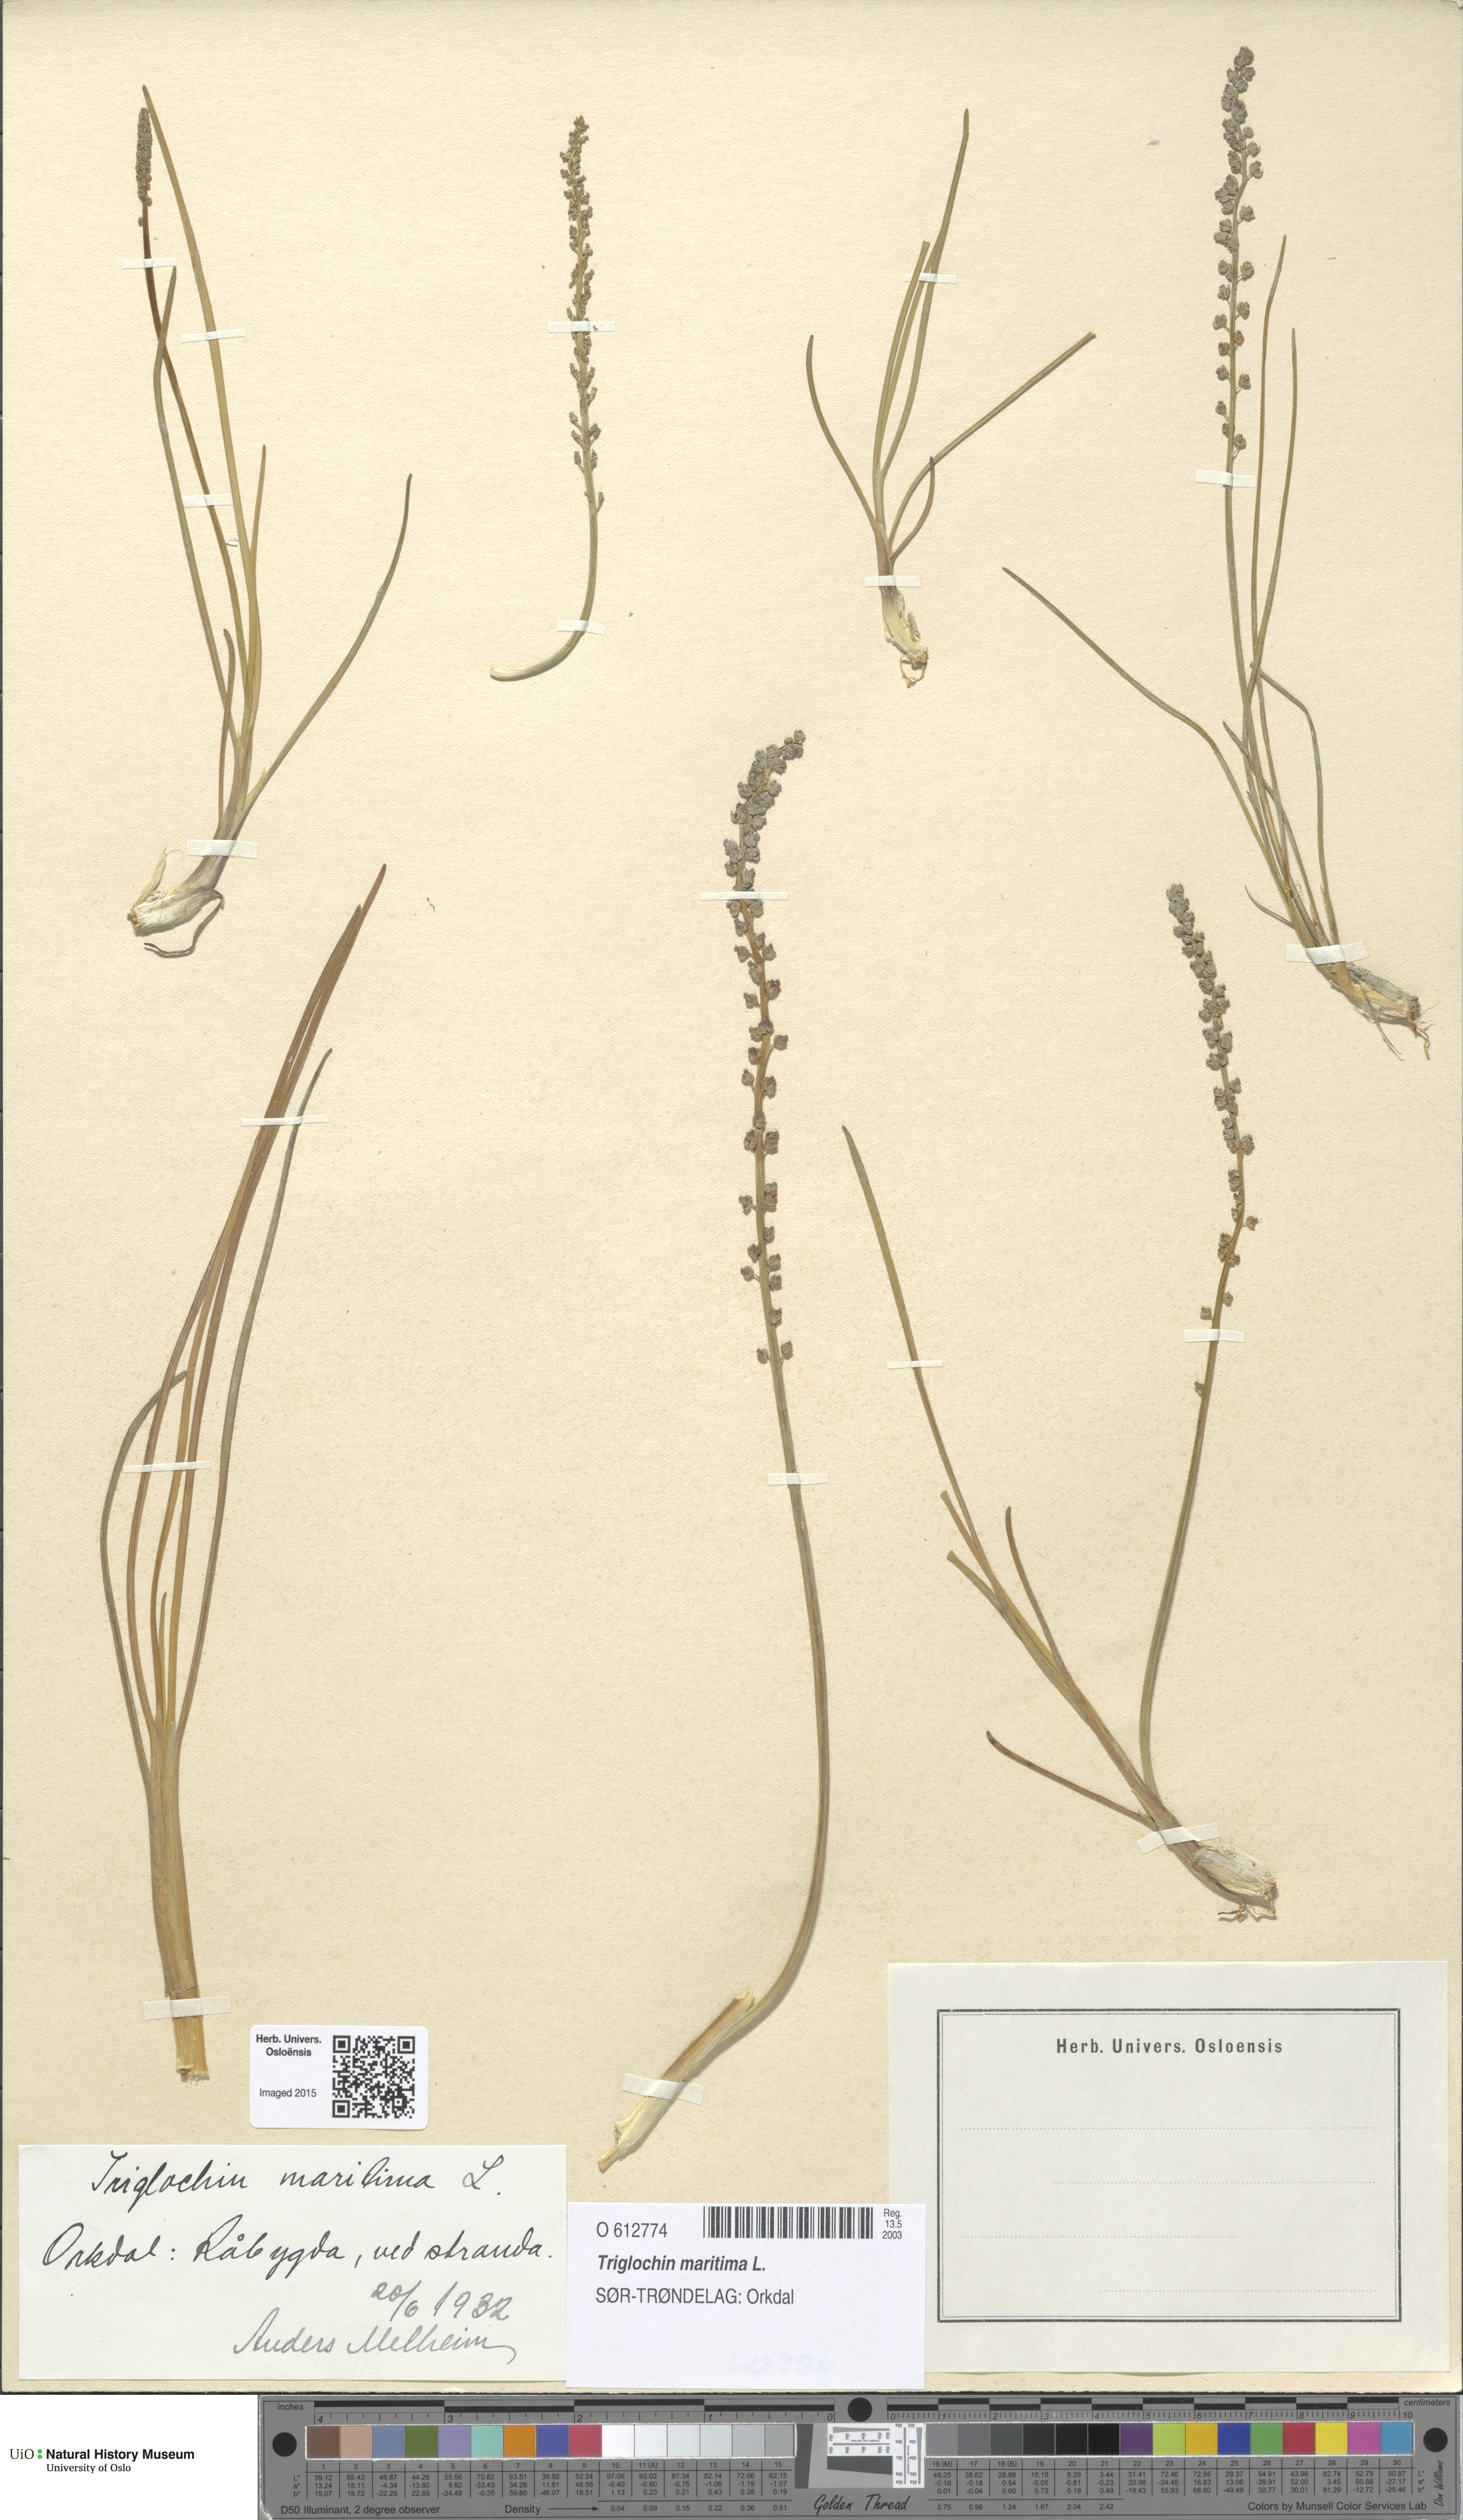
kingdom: Plantae
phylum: Tracheophyta
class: Liliopsida
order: Alismatales
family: Juncaginaceae
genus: Triglochin
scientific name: Triglochin maritima
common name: Sea arrowgrass
